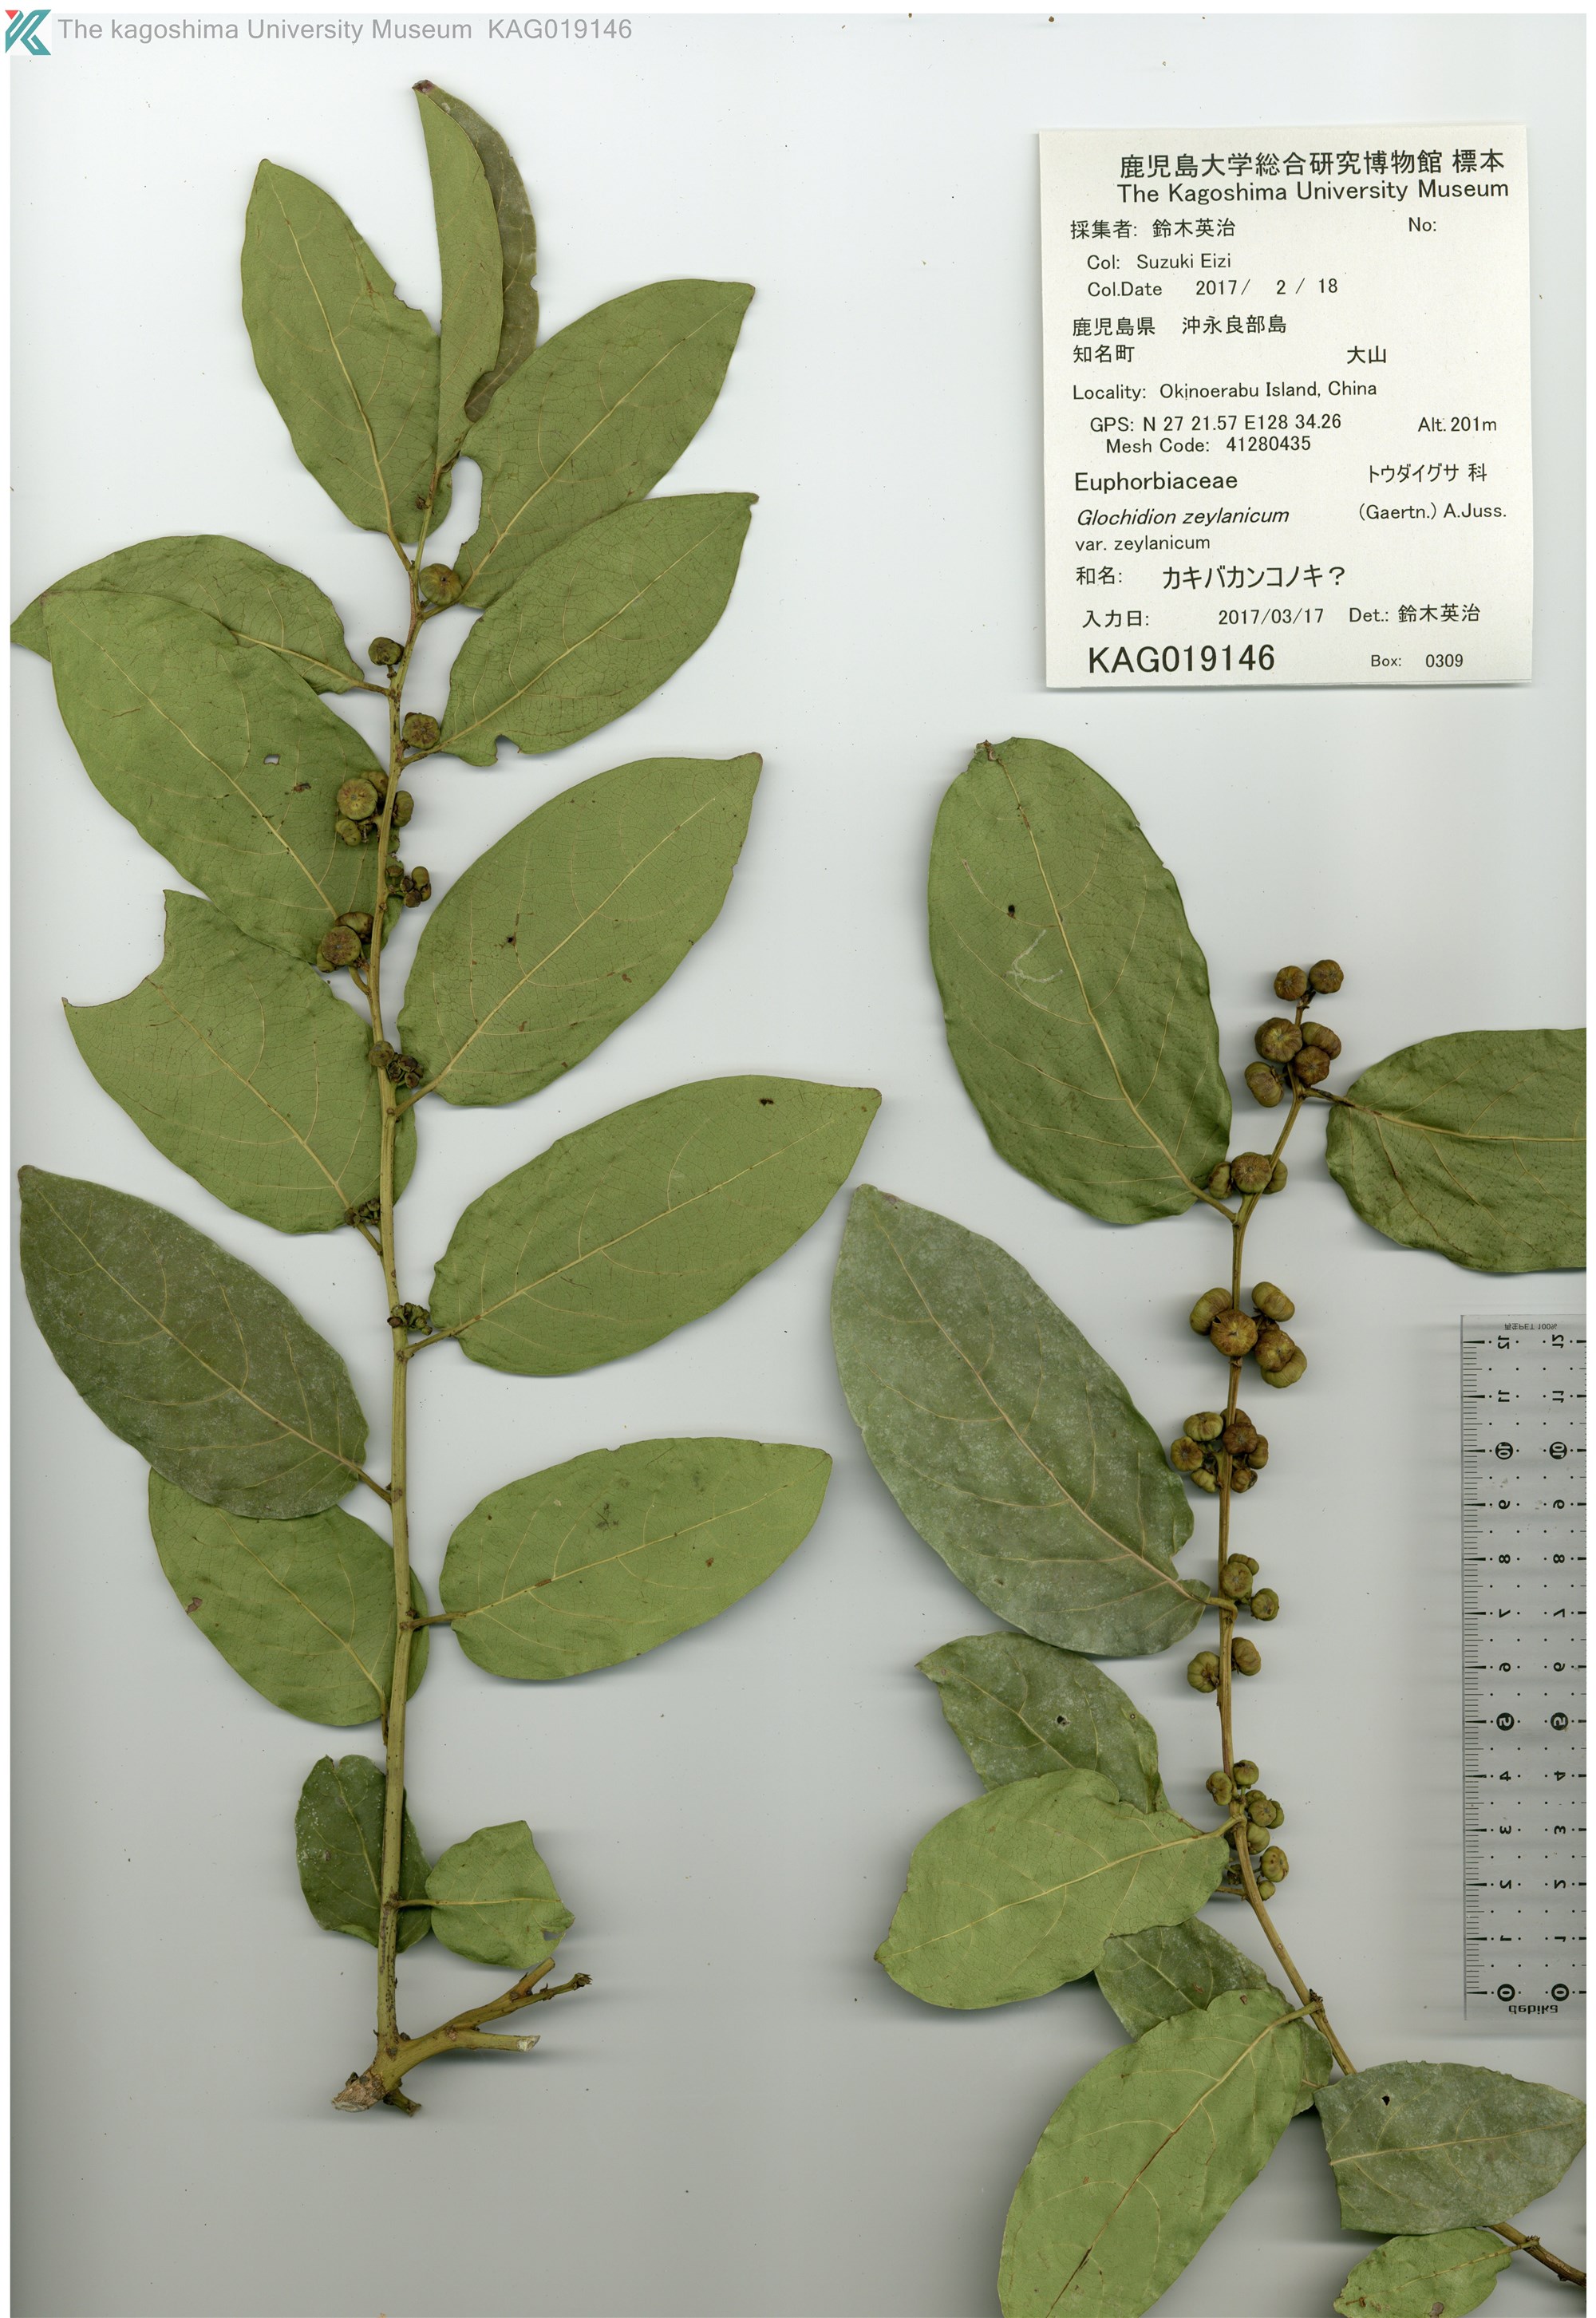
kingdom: Plantae
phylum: Tracheophyta
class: Magnoliopsida
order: Malpighiales
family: Phyllanthaceae
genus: Glochidion
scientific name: Glochidion zeylanicum
